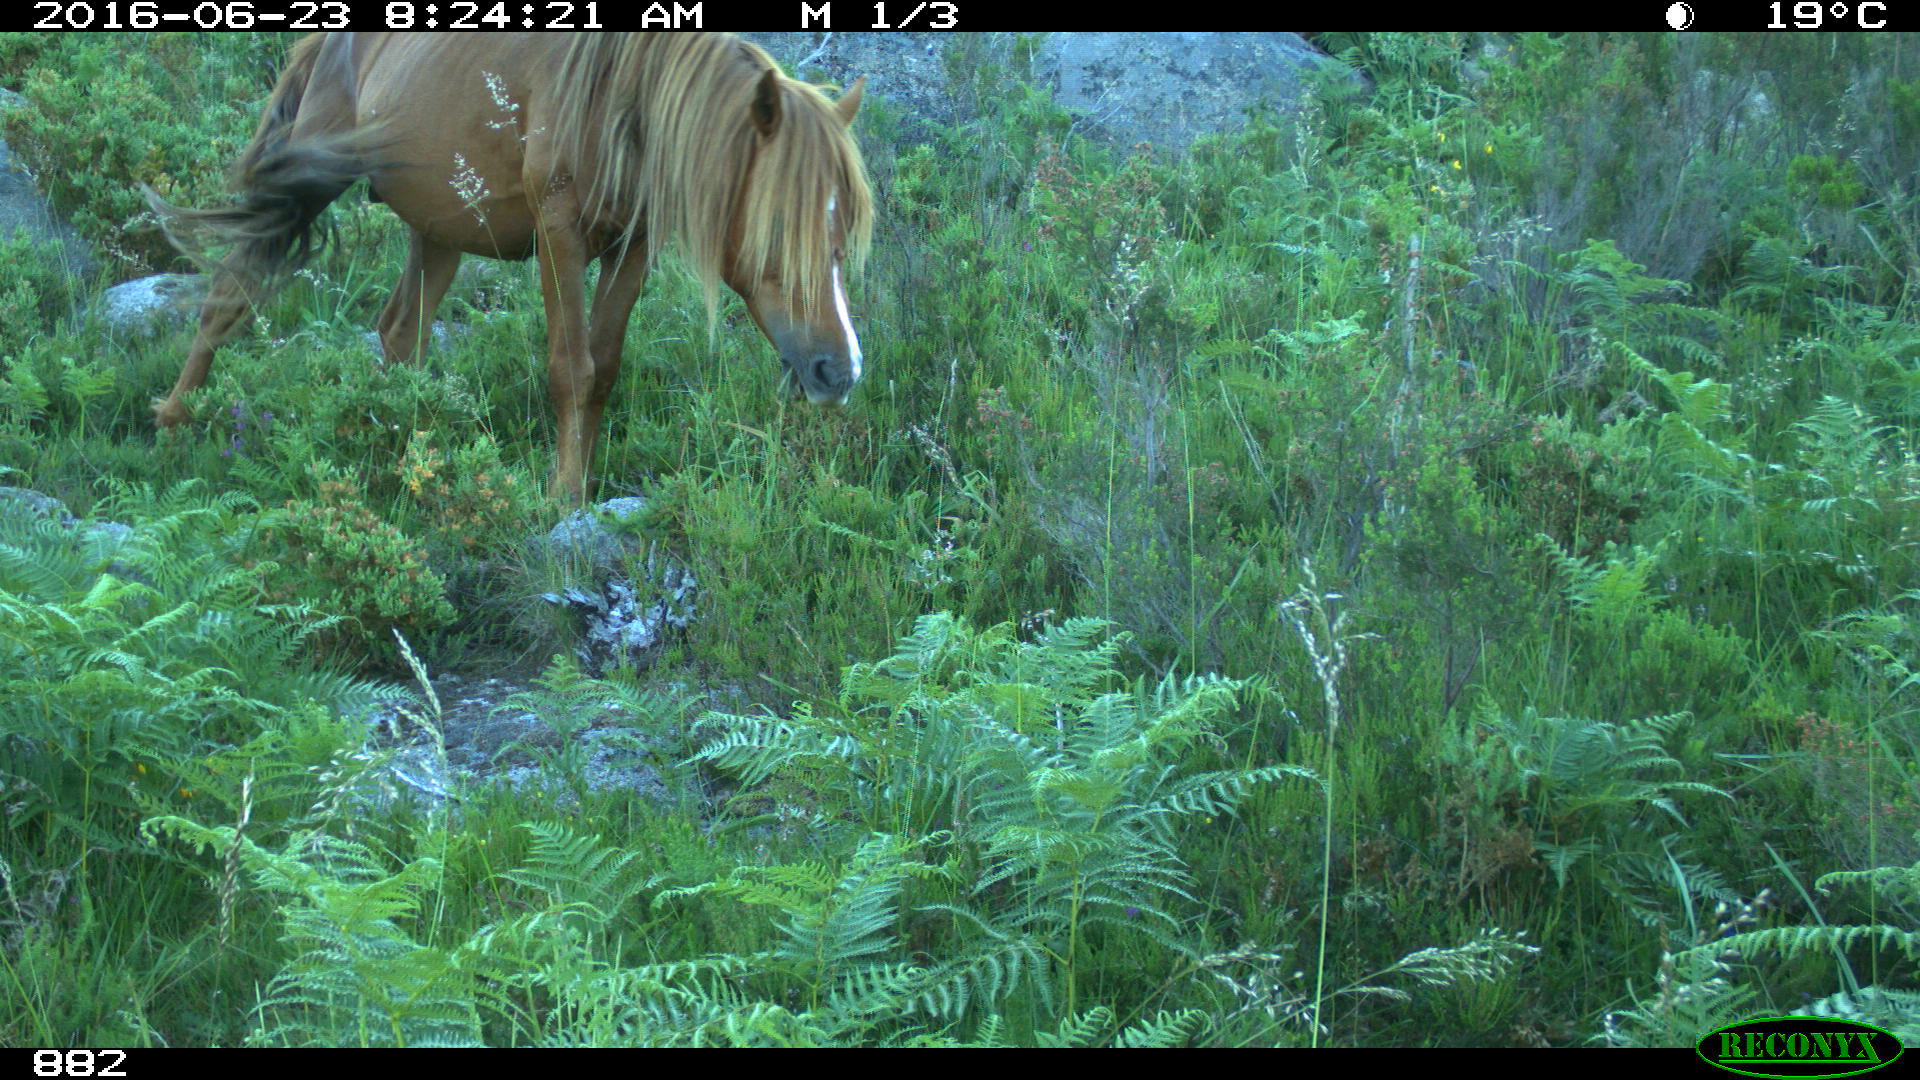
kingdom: Animalia
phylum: Chordata
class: Mammalia
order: Perissodactyla
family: Equidae
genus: Equus
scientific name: Equus caballus
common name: Horse
